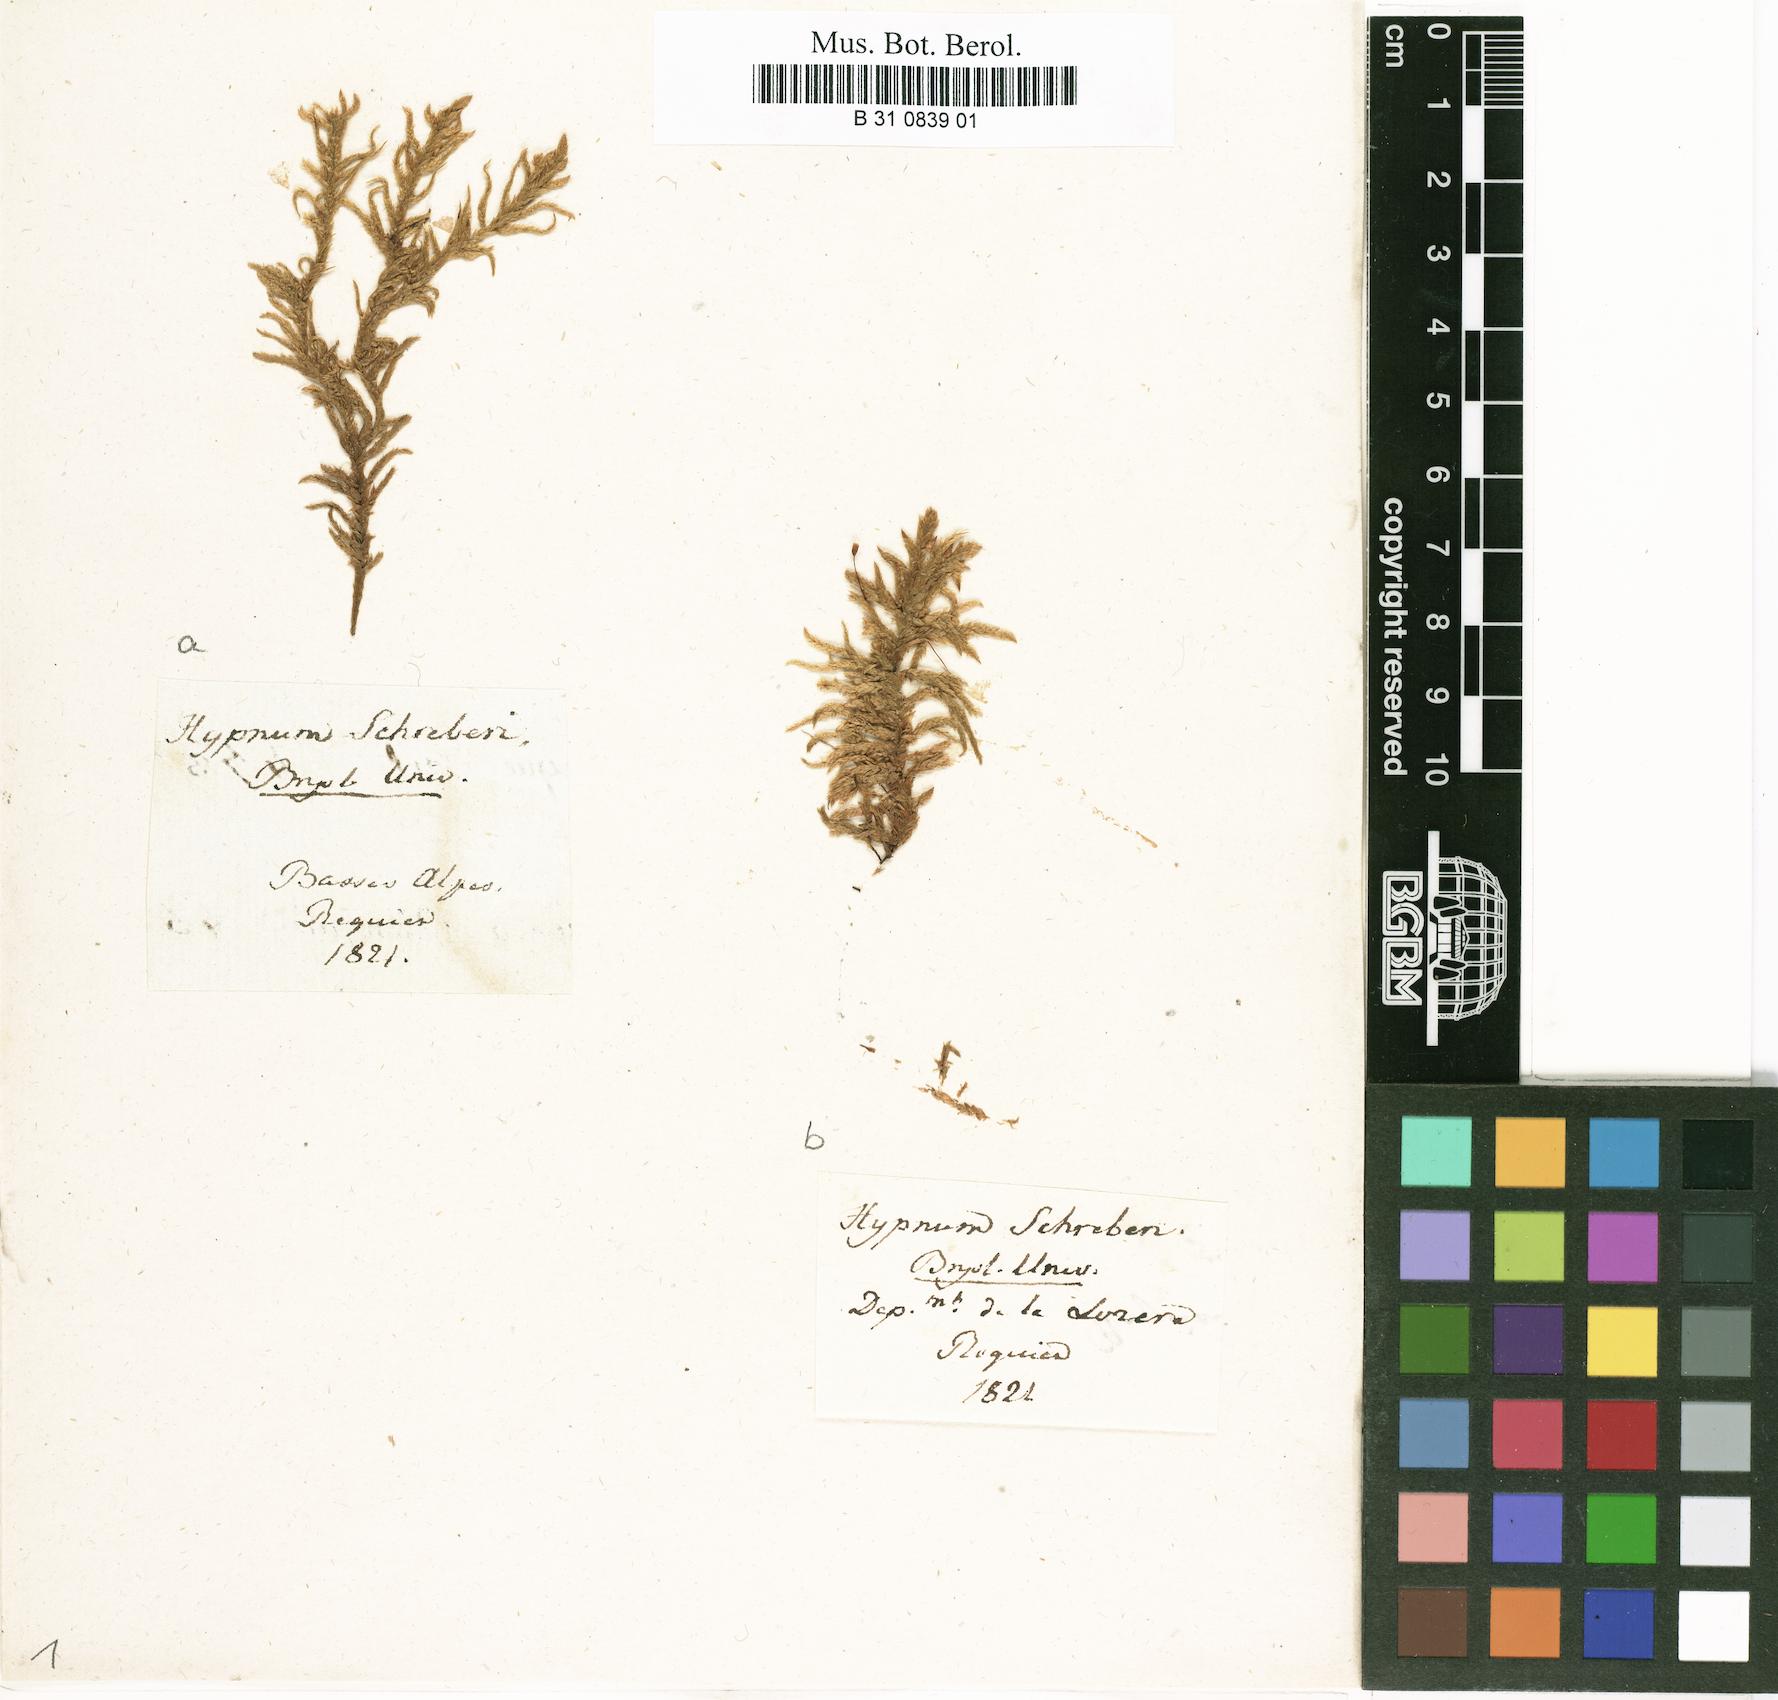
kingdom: Plantae
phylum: Bryophyta
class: Bryopsida
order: Hypnales
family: Hylocomiaceae
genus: Pleurozium
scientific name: Pleurozium schreberi
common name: Red-stemmed feather moss
